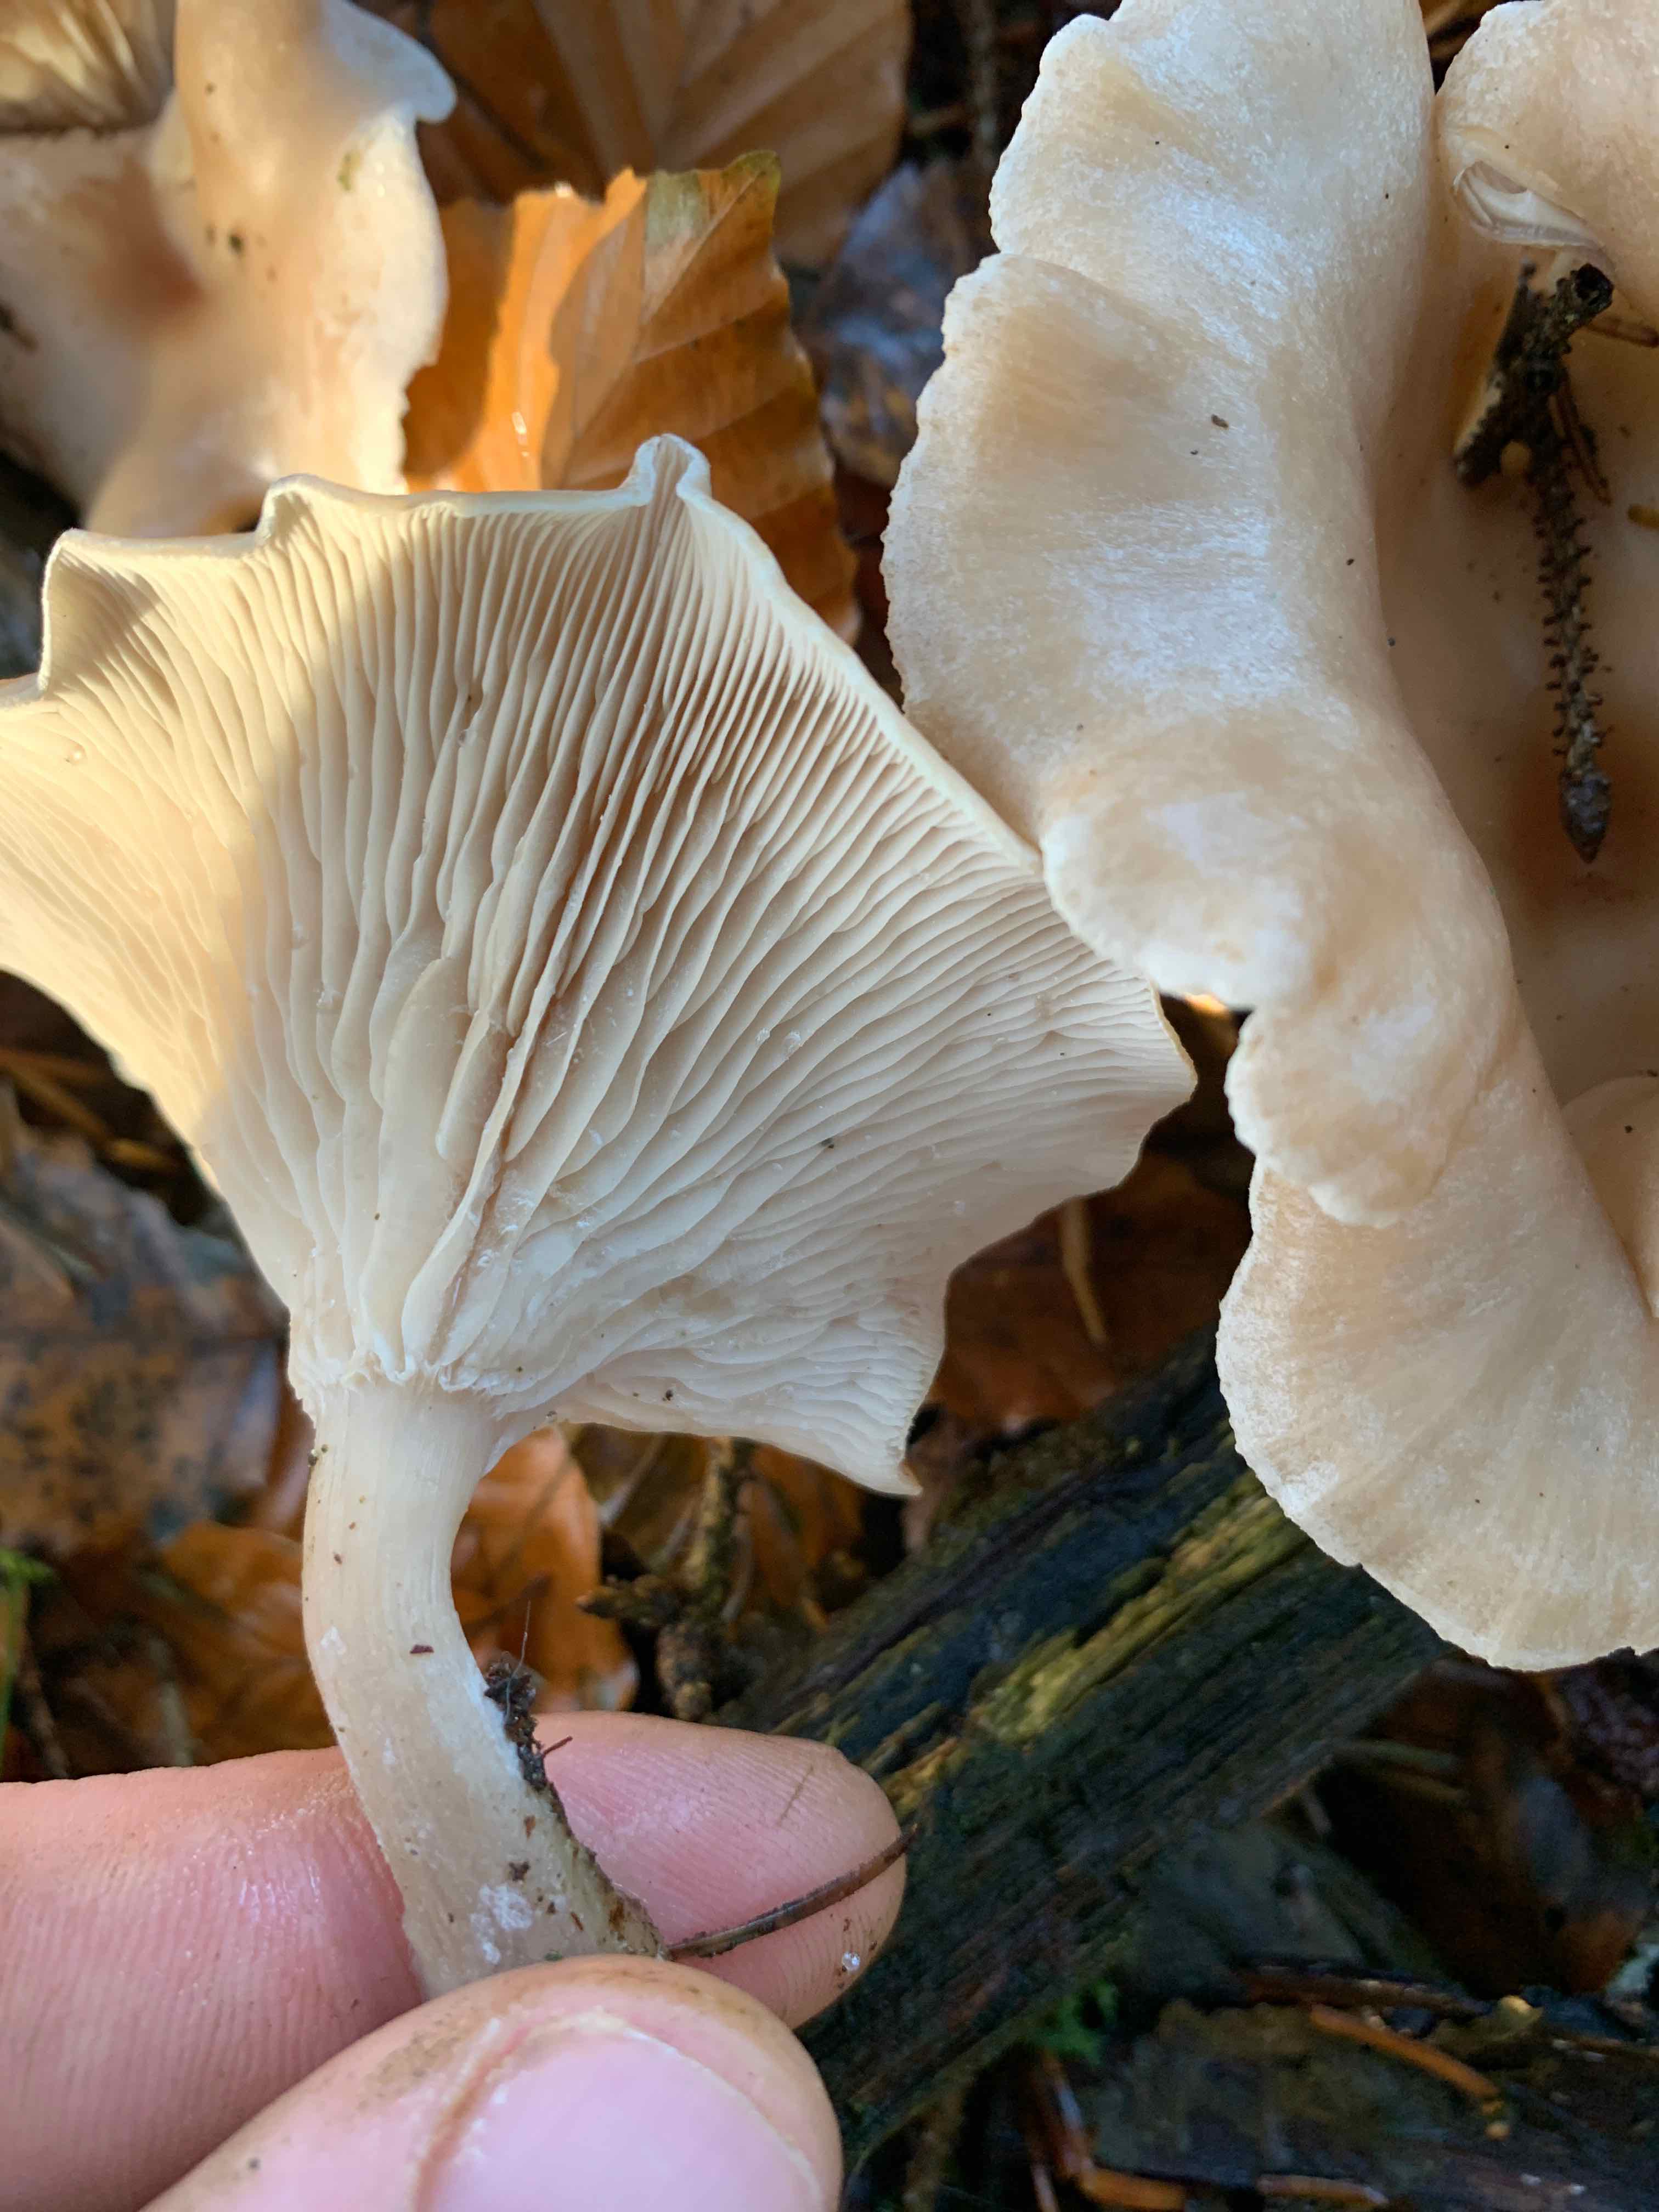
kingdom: Fungi
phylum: Basidiomycota
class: Agaricomycetes
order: Agaricales
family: Tricholomataceae
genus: Clitocybe
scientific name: Clitocybe
